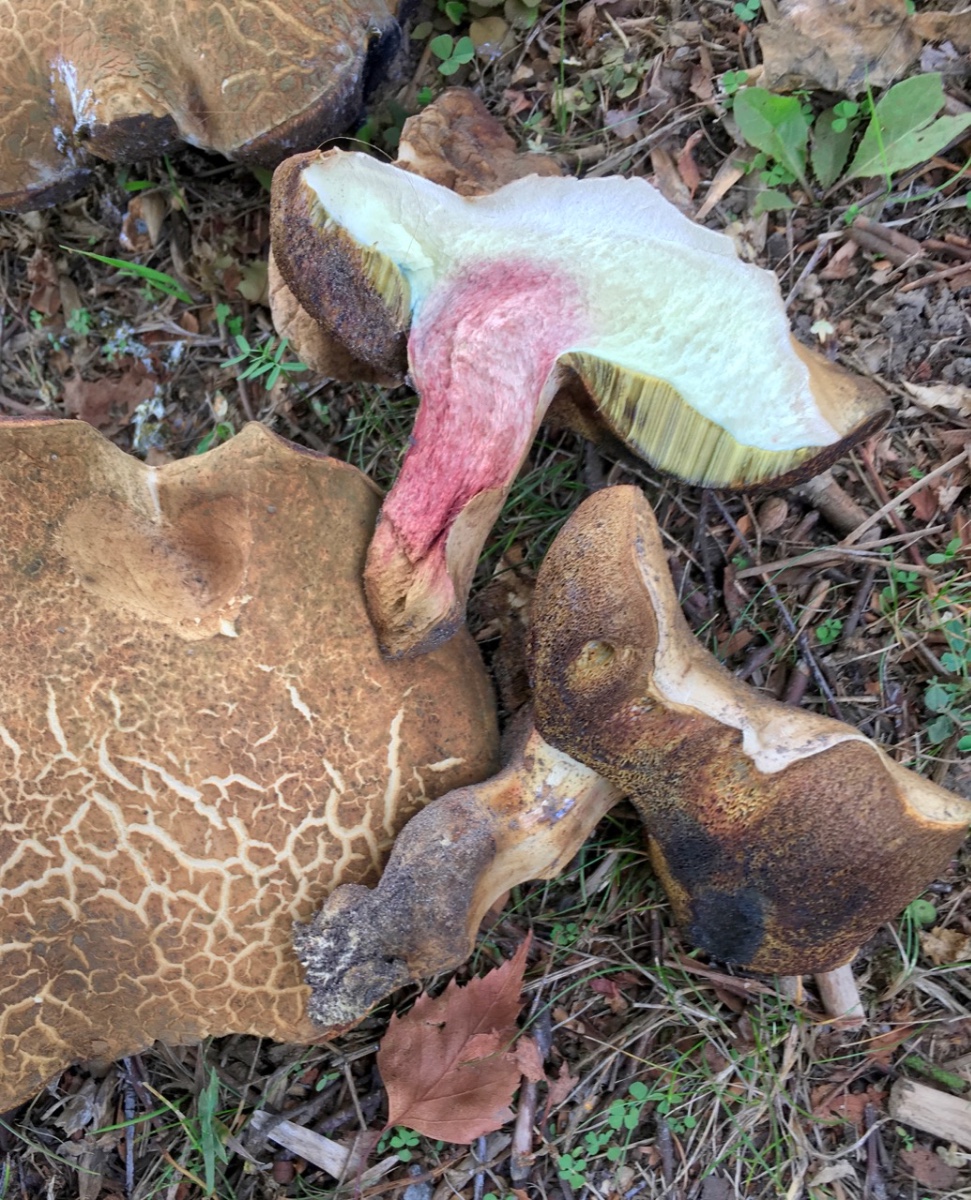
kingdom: Fungi
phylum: Basidiomycota
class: Agaricomycetes
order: Boletales
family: Boletaceae
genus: Caloboletus
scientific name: Caloboletus radicans
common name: rod-rørhat
